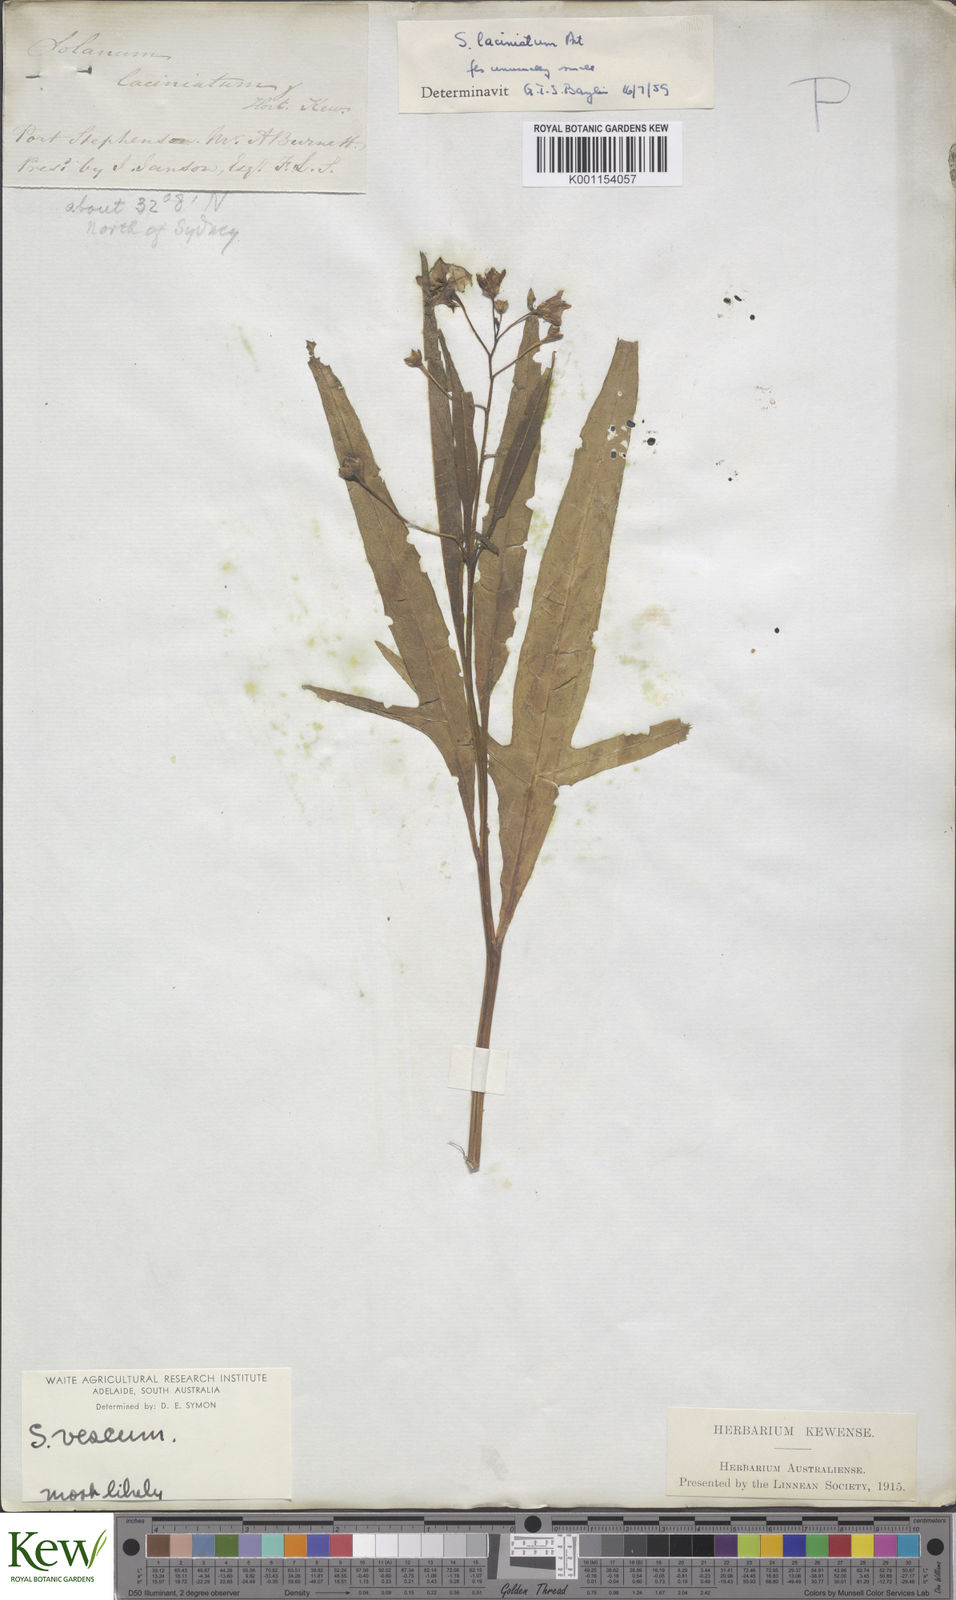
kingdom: Plantae
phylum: Tracheophyta
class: Magnoliopsida
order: Solanales
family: Solanaceae
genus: Solanum
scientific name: Solanum vescum
